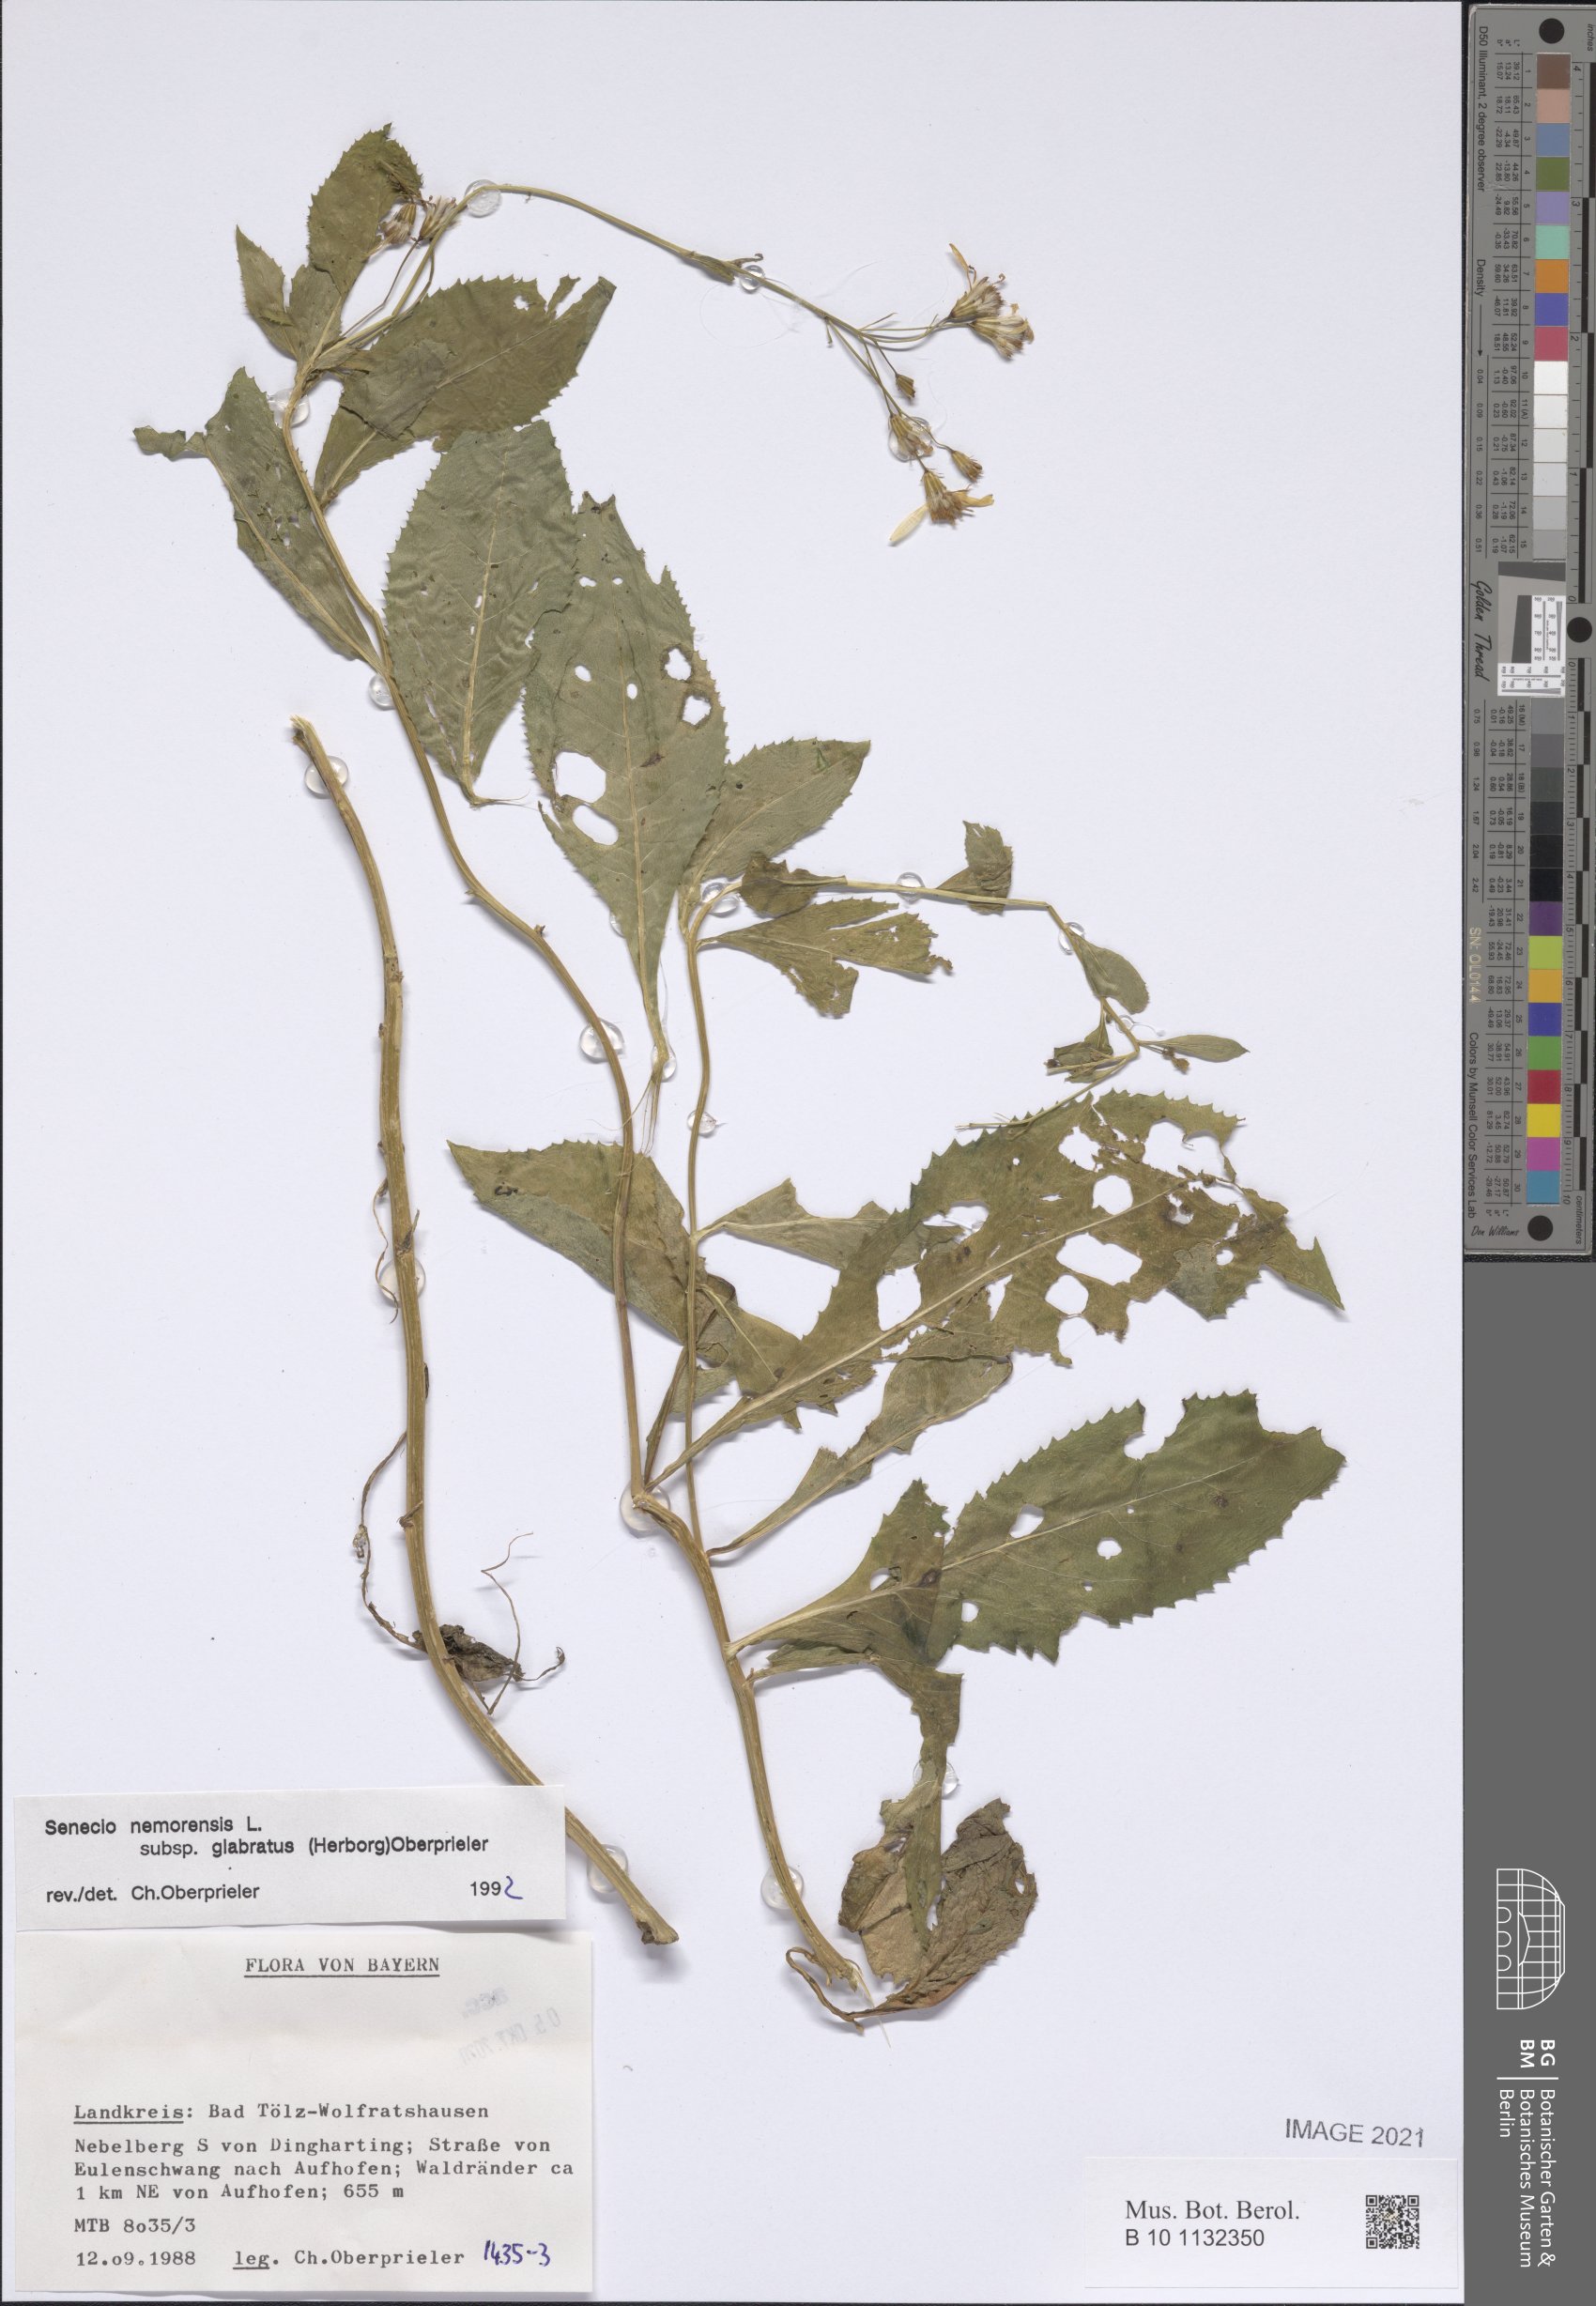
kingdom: Plantae
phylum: Tracheophyta
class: Magnoliopsida
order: Asterales
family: Asteraceae
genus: Senecio
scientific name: Senecio germanicus
